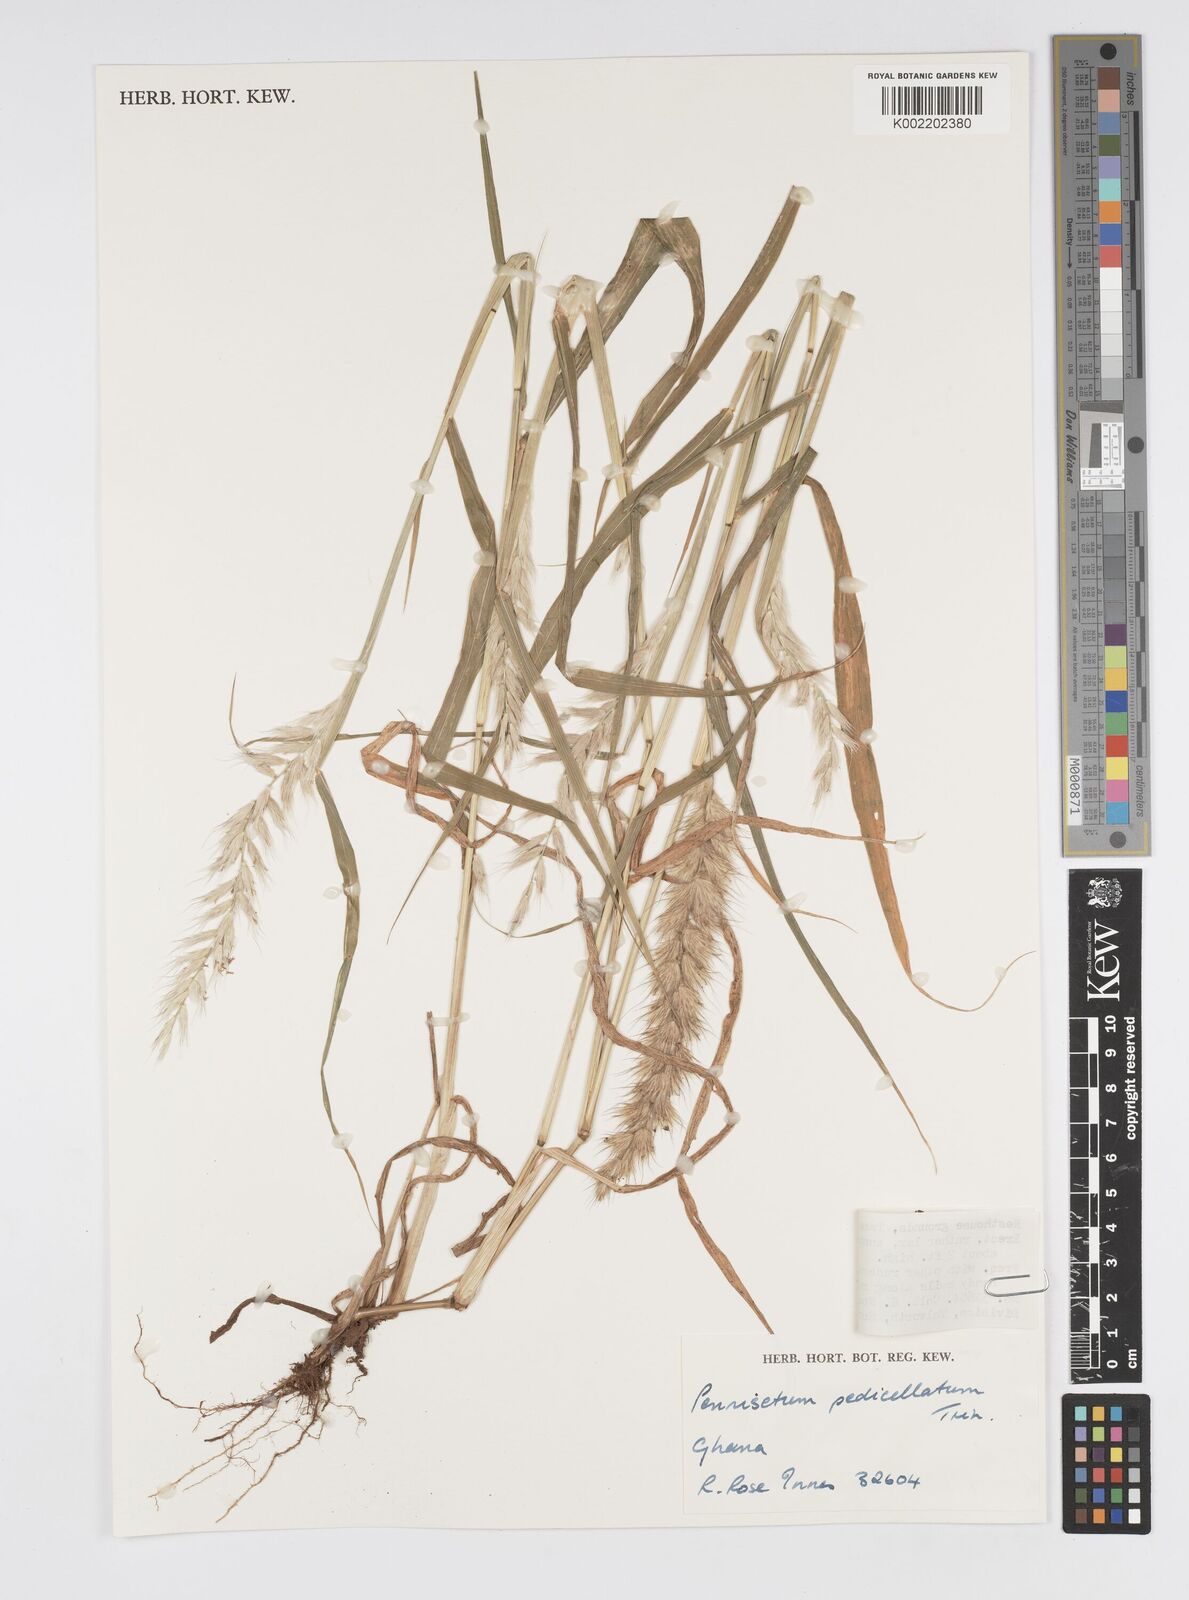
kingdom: Plantae
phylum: Tracheophyta
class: Liliopsida
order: Poales
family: Poaceae
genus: Cenchrus
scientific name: Cenchrus pedicellatus
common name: Hairy fountain grass
